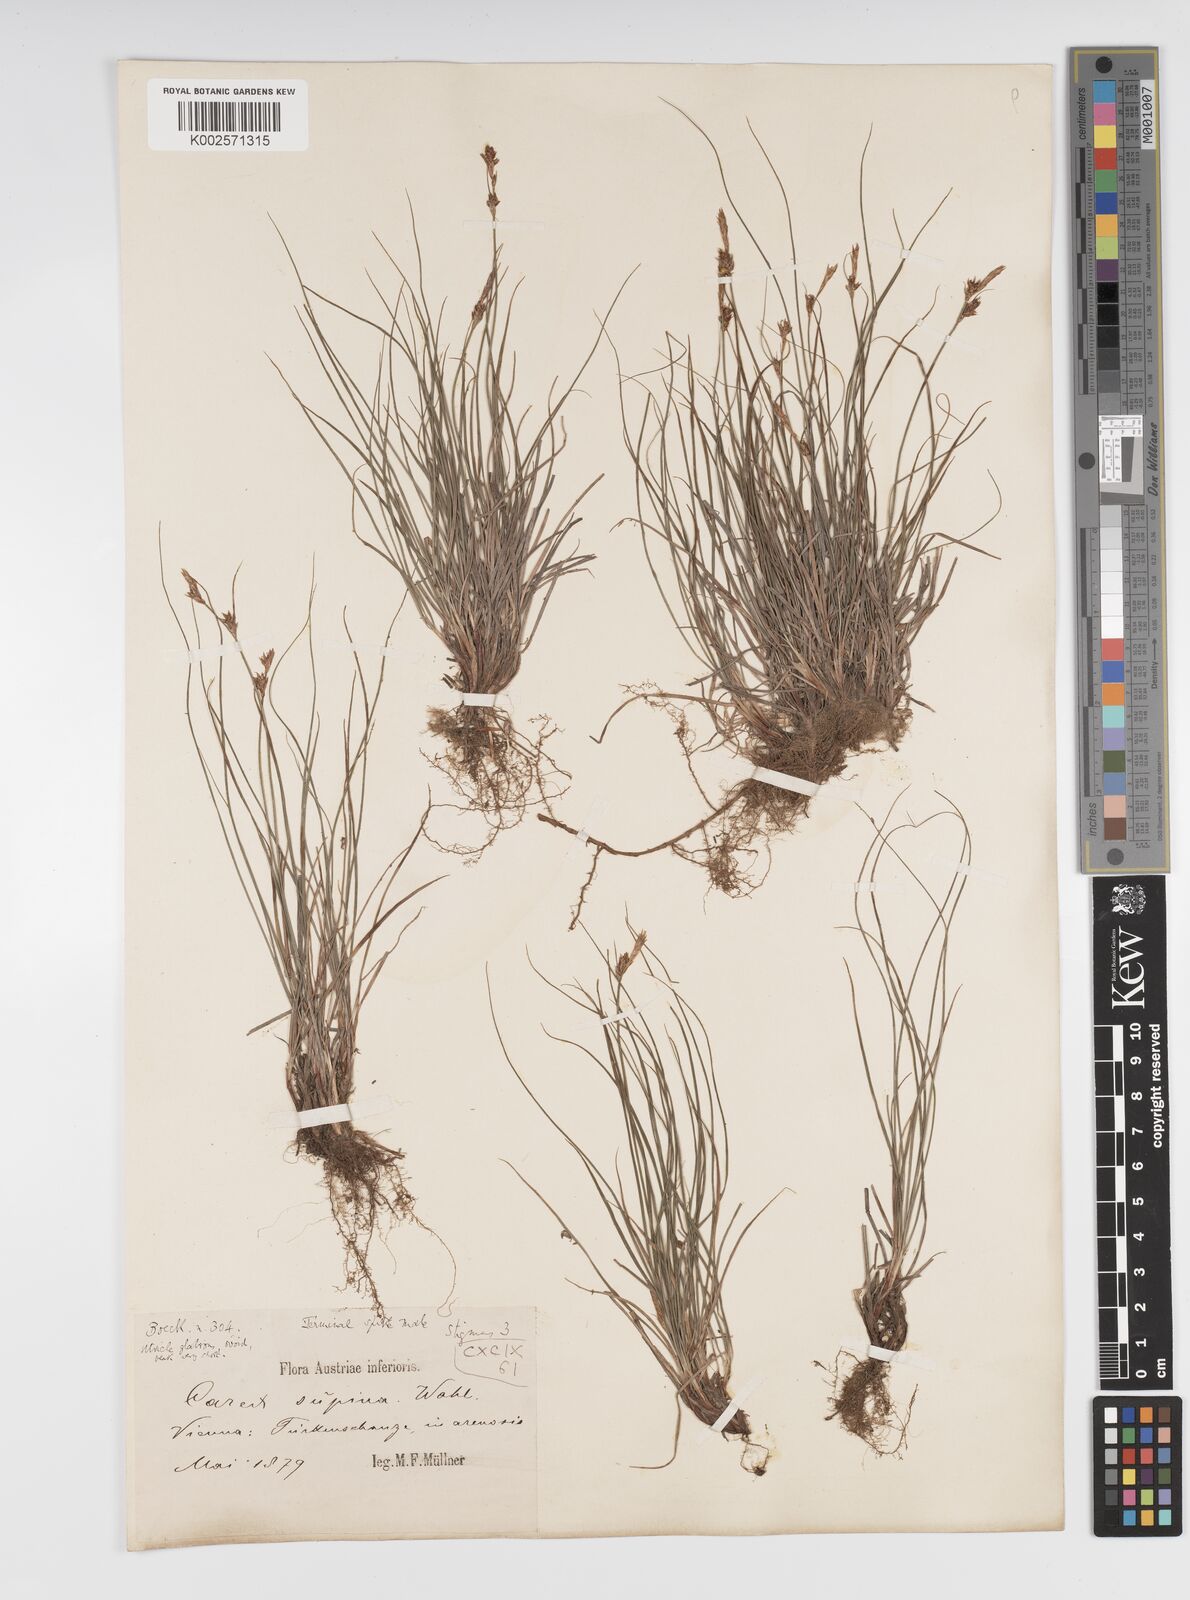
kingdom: Plantae
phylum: Tracheophyta
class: Liliopsida
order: Poales
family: Cyperaceae
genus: Carex
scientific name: Carex supina
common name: Lying-back sedge
